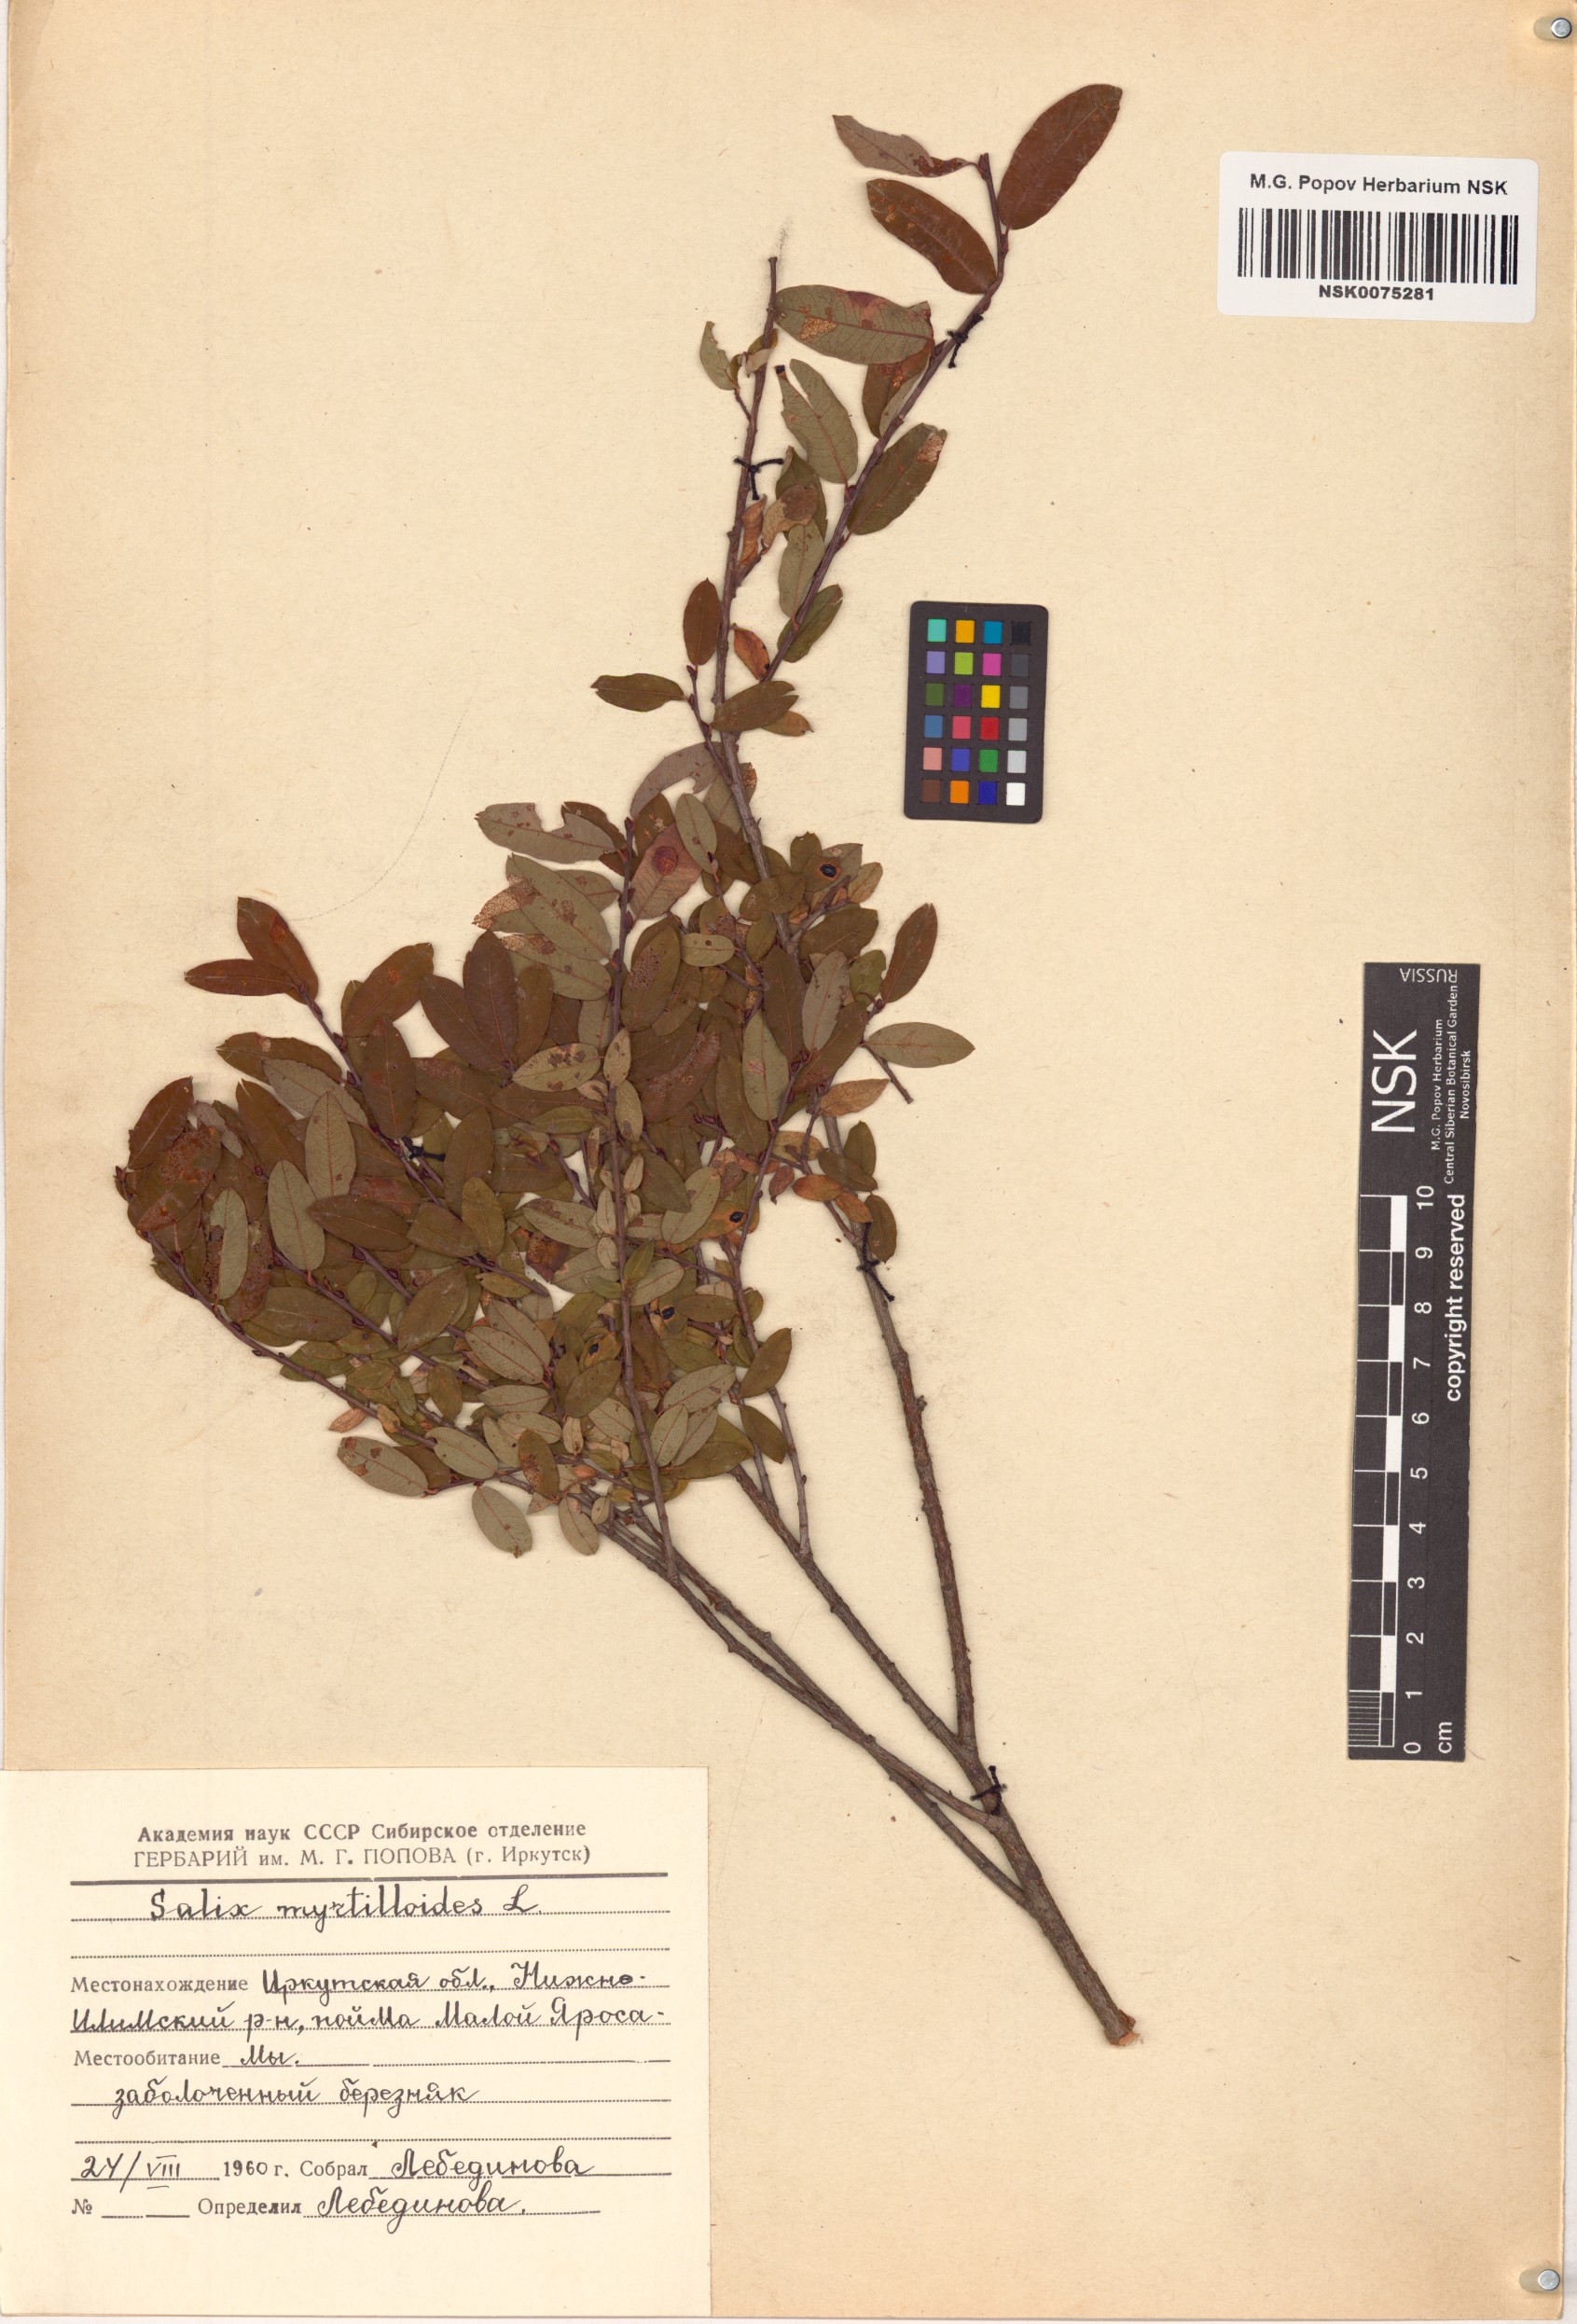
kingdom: Plantae
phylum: Tracheophyta
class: Magnoliopsida
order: Malpighiales
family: Salicaceae
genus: Salix
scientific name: Salix myrtilloides
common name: Myrtle-leaved willow
